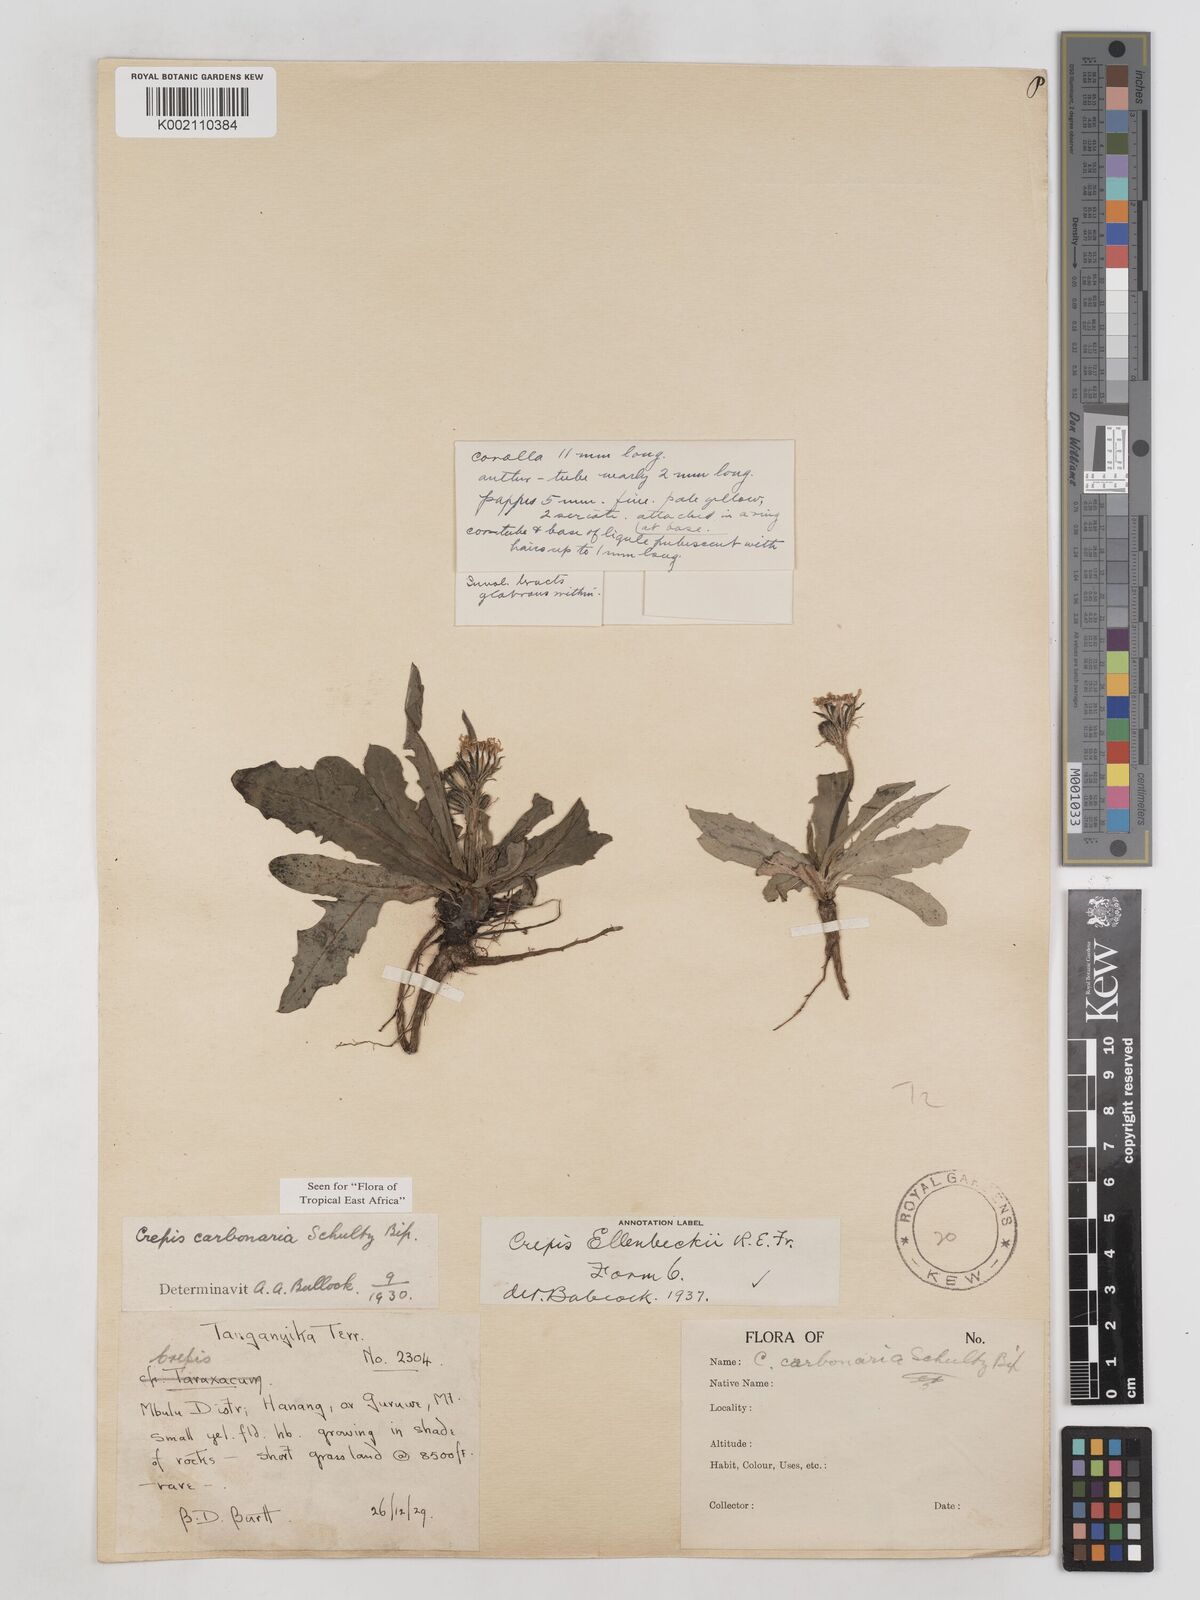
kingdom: Plantae
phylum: Tracheophyta
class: Magnoliopsida
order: Asterales
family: Asteraceae
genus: Crepis
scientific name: Crepis carbonaria
